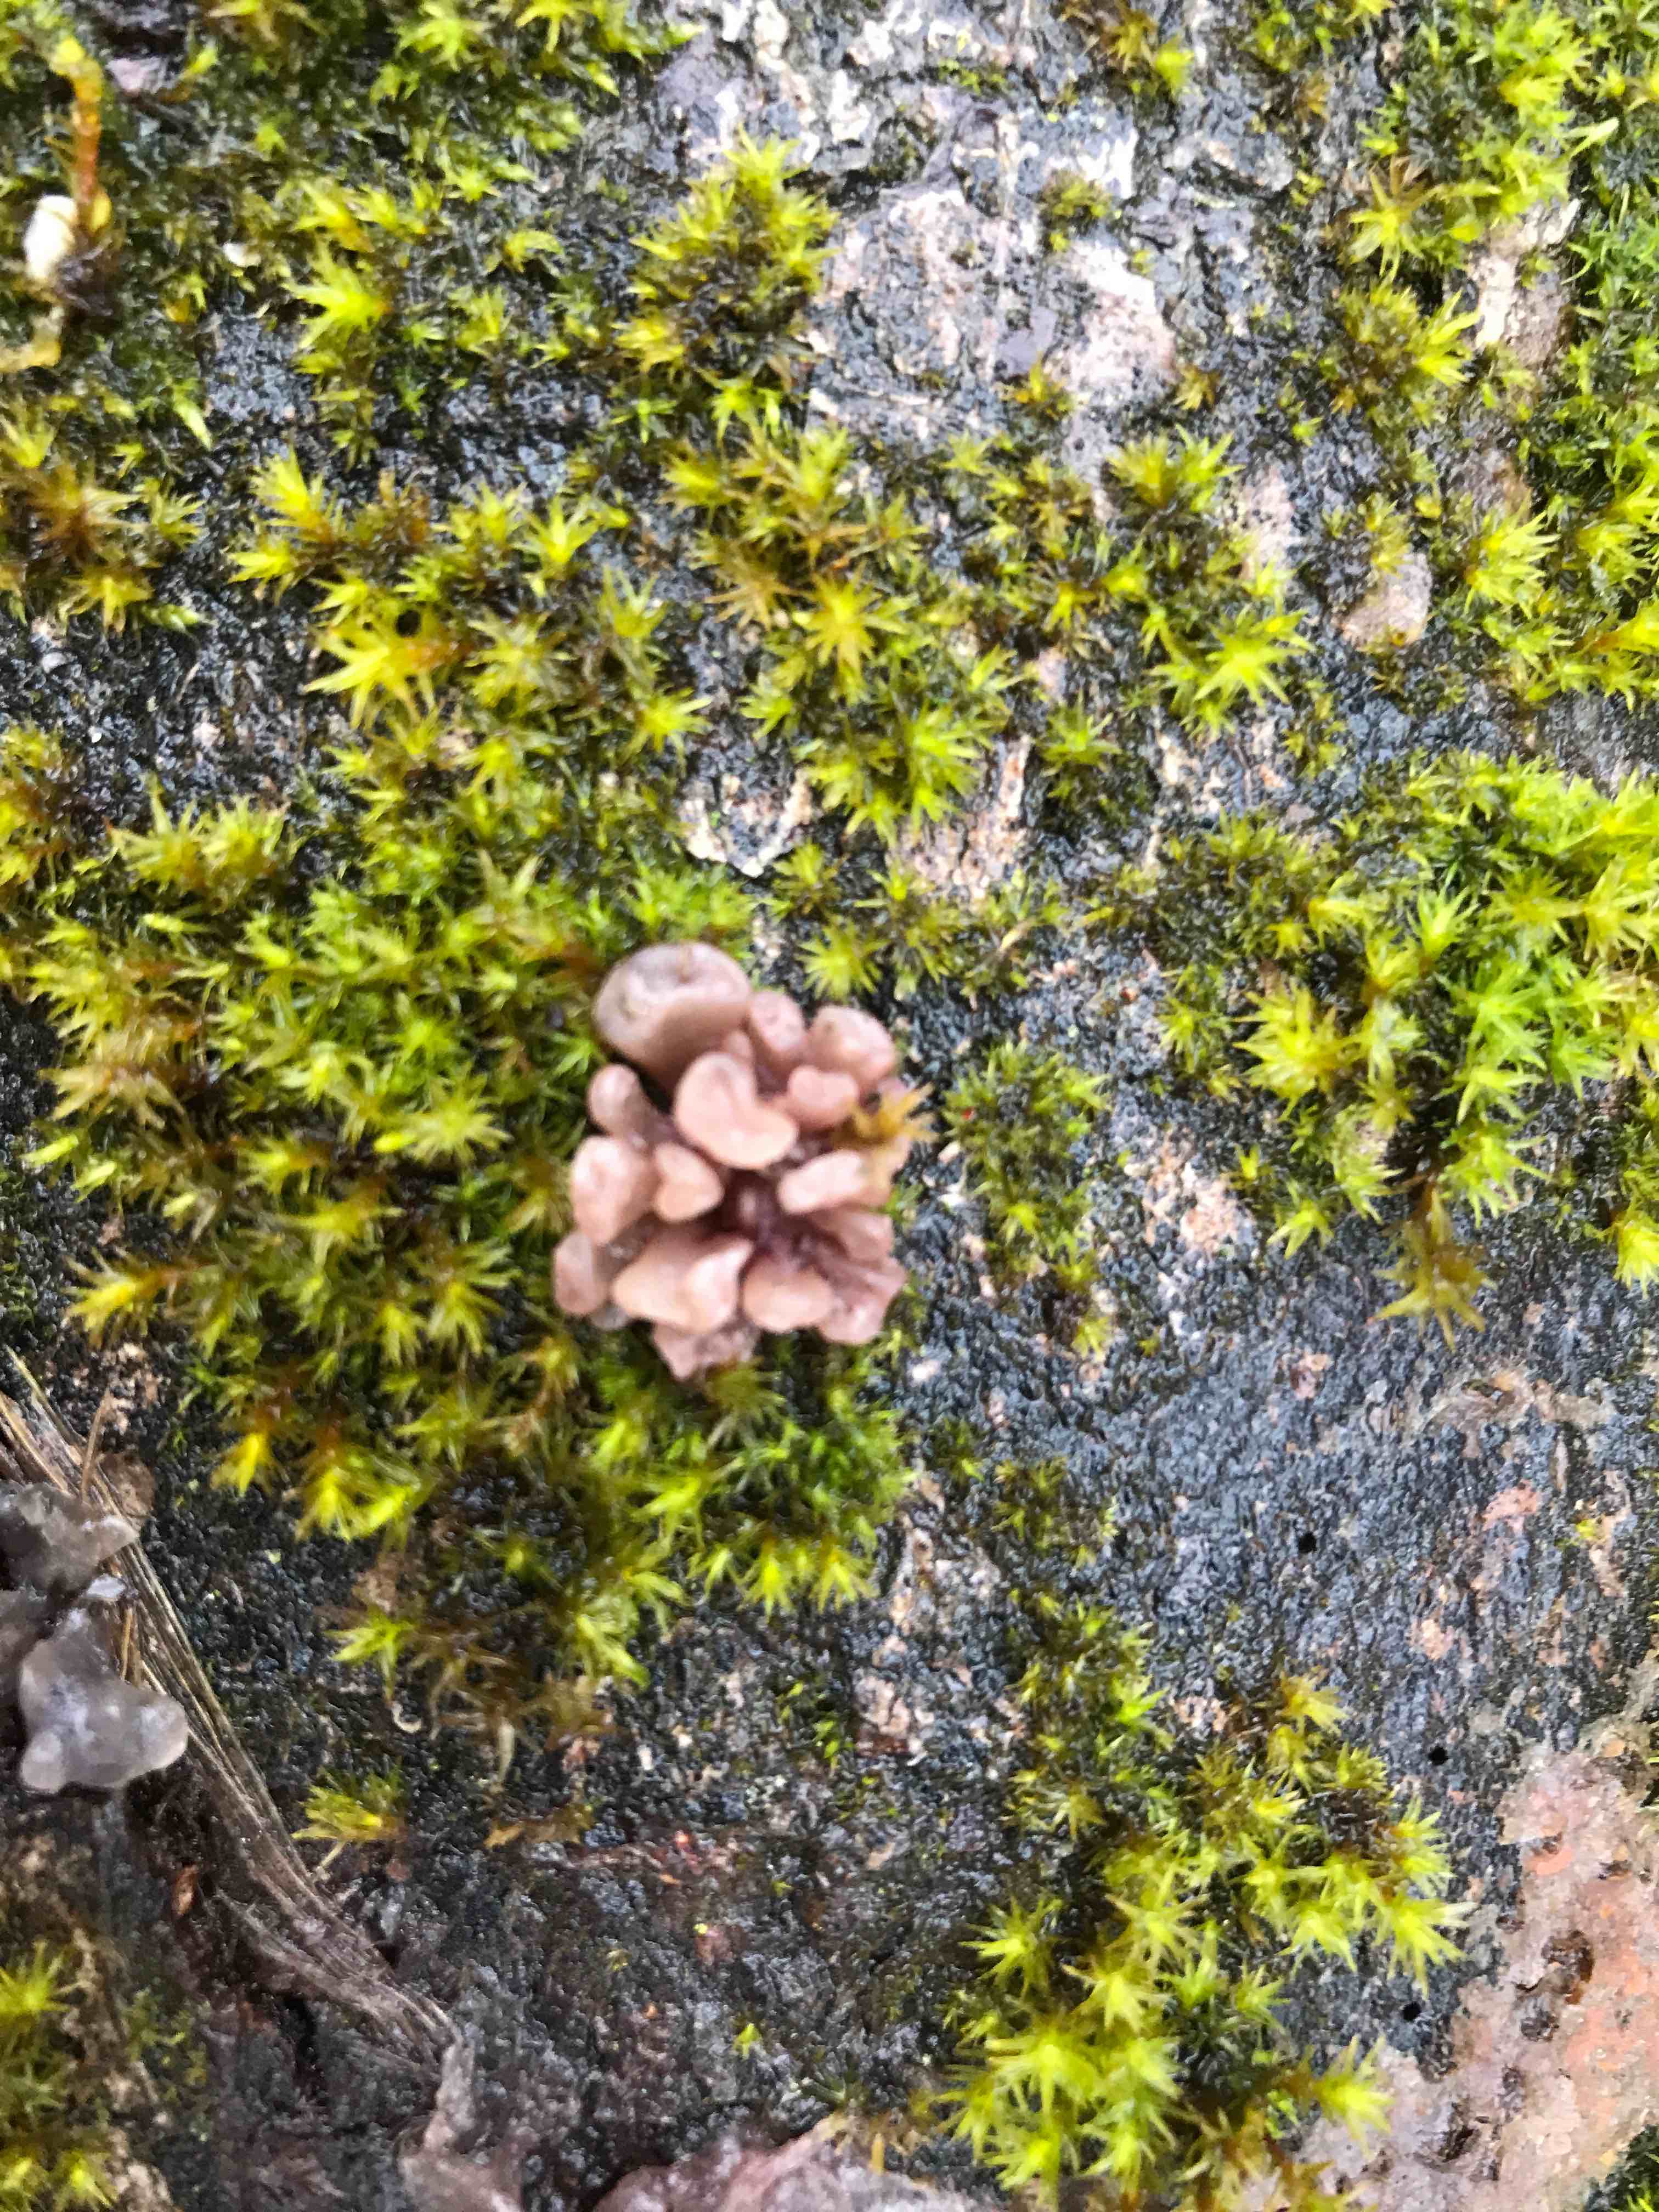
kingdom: Fungi
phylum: Ascomycota
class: Leotiomycetes
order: Helotiales
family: Gelatinodiscaceae
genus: Ascocoryne
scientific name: Ascocoryne sarcoides
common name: rødlilla sejskive
